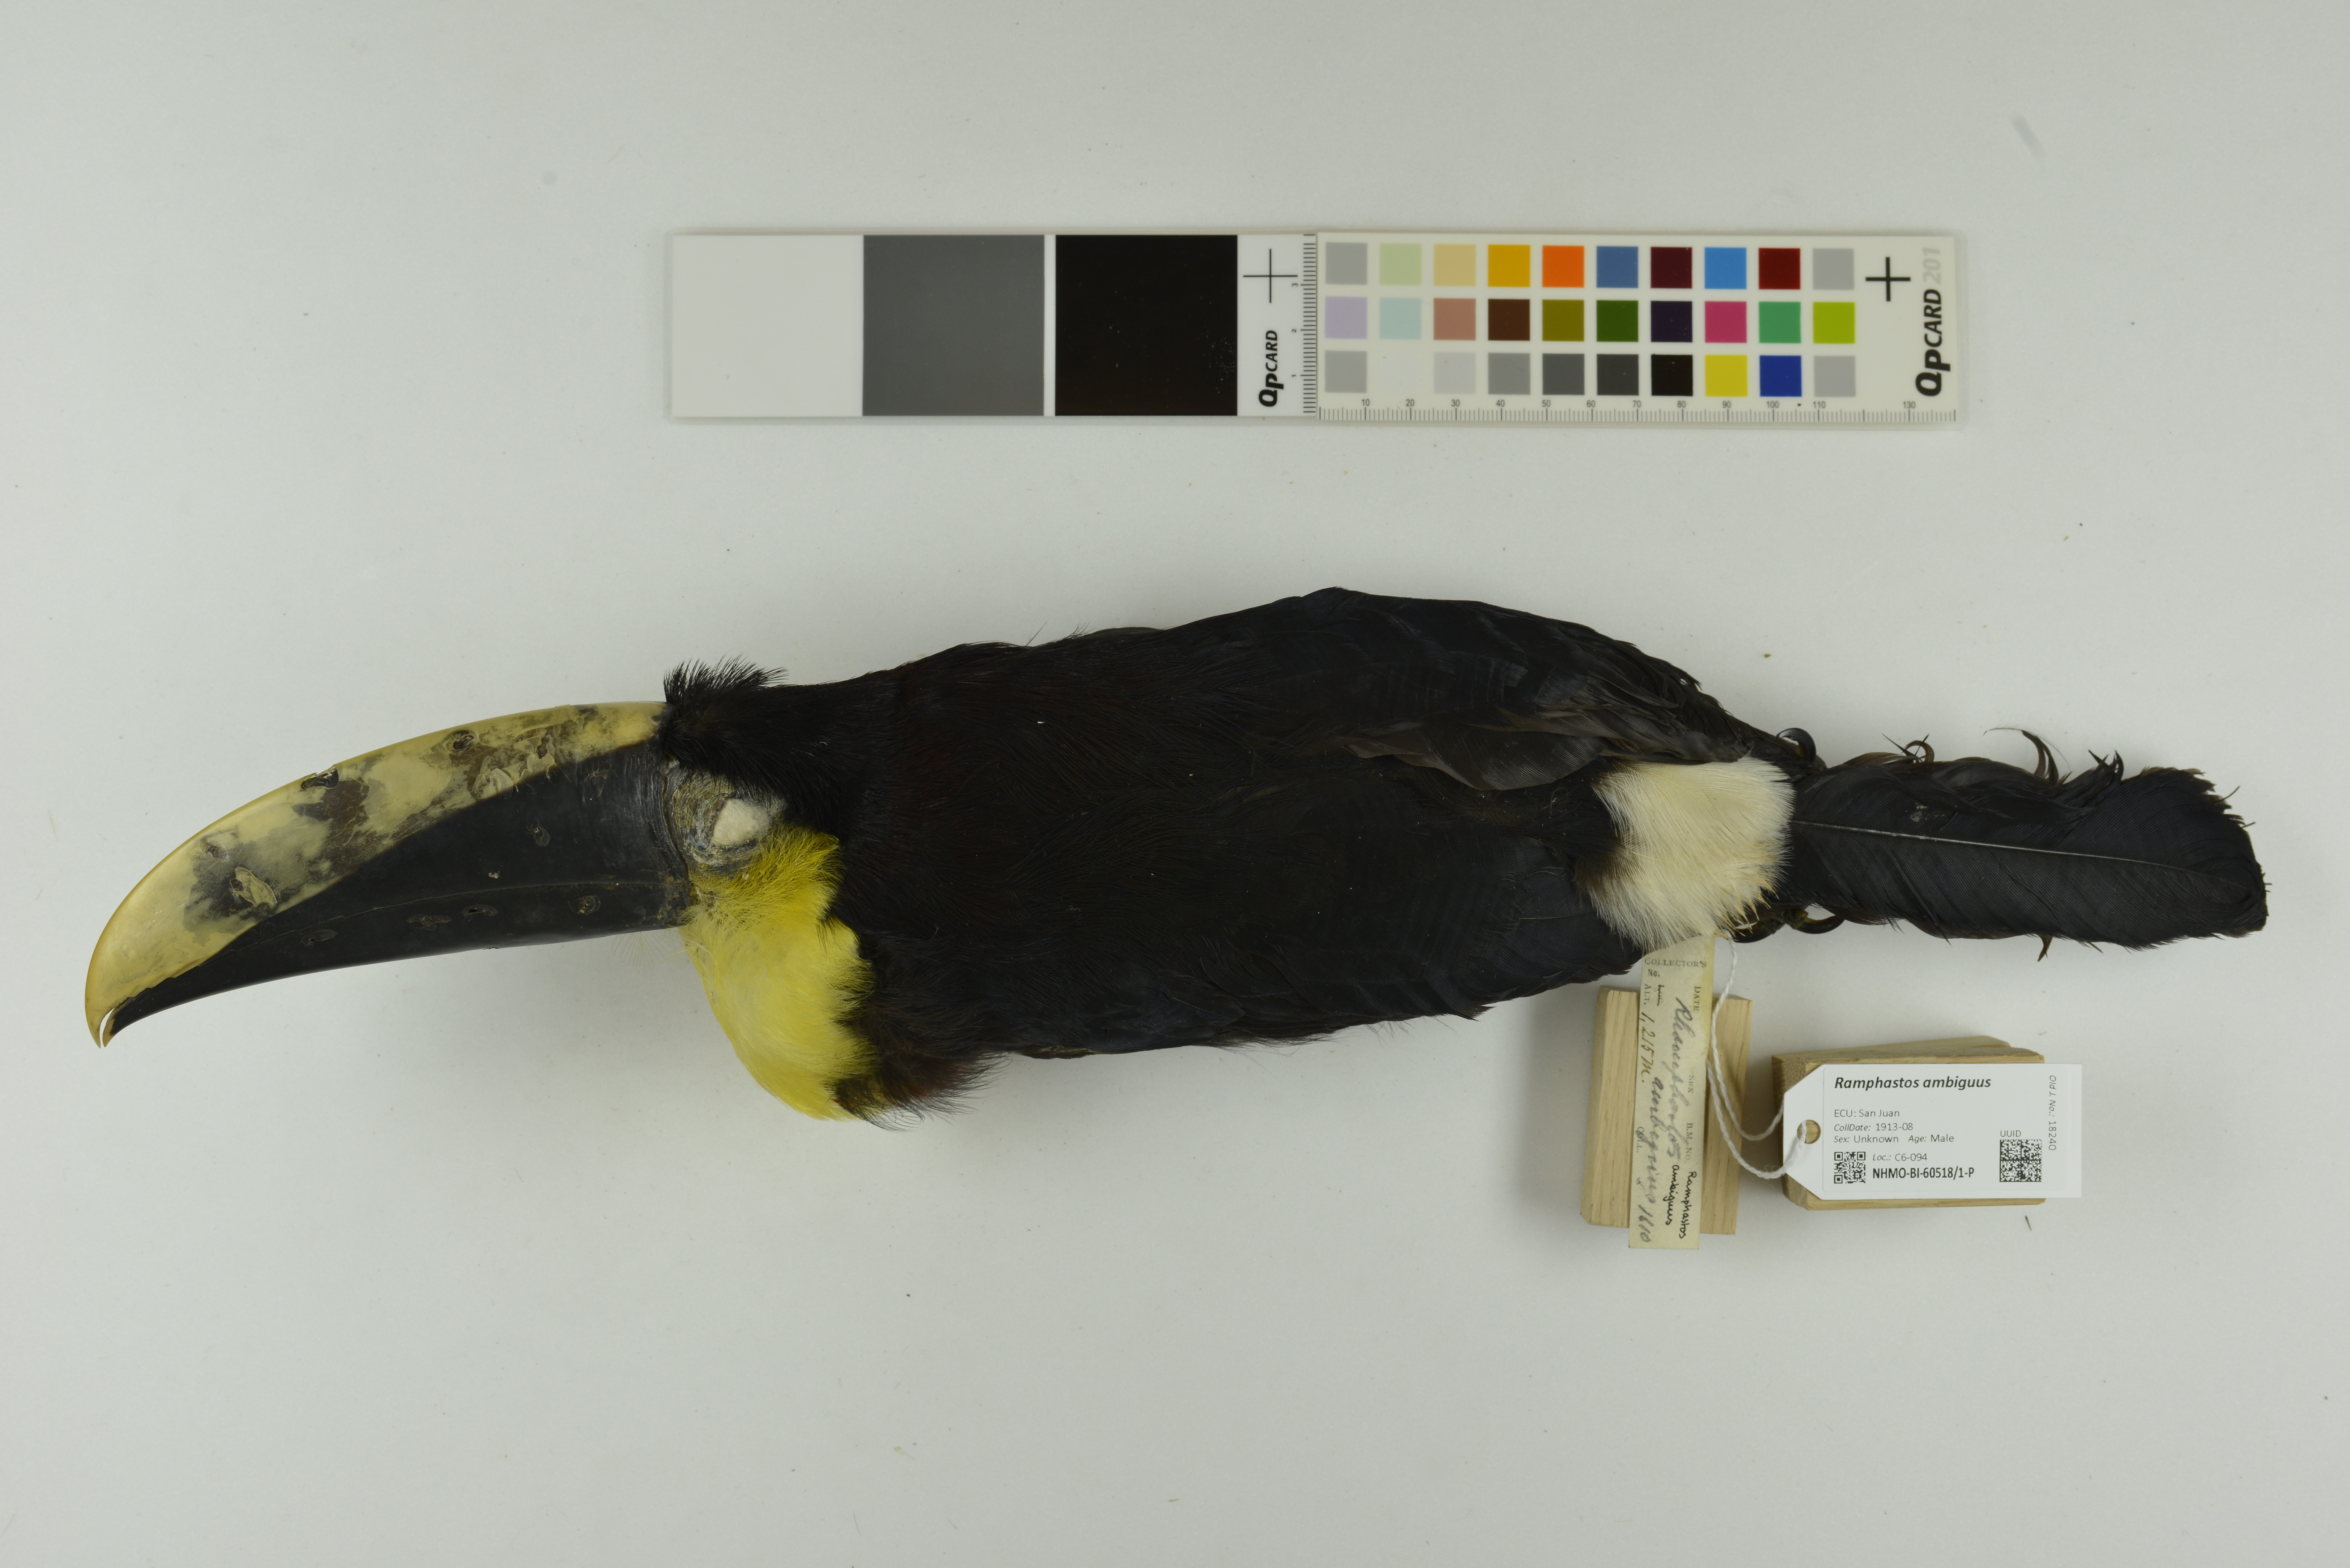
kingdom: Animalia
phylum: Chordata
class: Aves
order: Piciformes
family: Ramphastidae
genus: Ramphastos
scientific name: Ramphastos ambiguus
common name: Yellow-throated toucan
